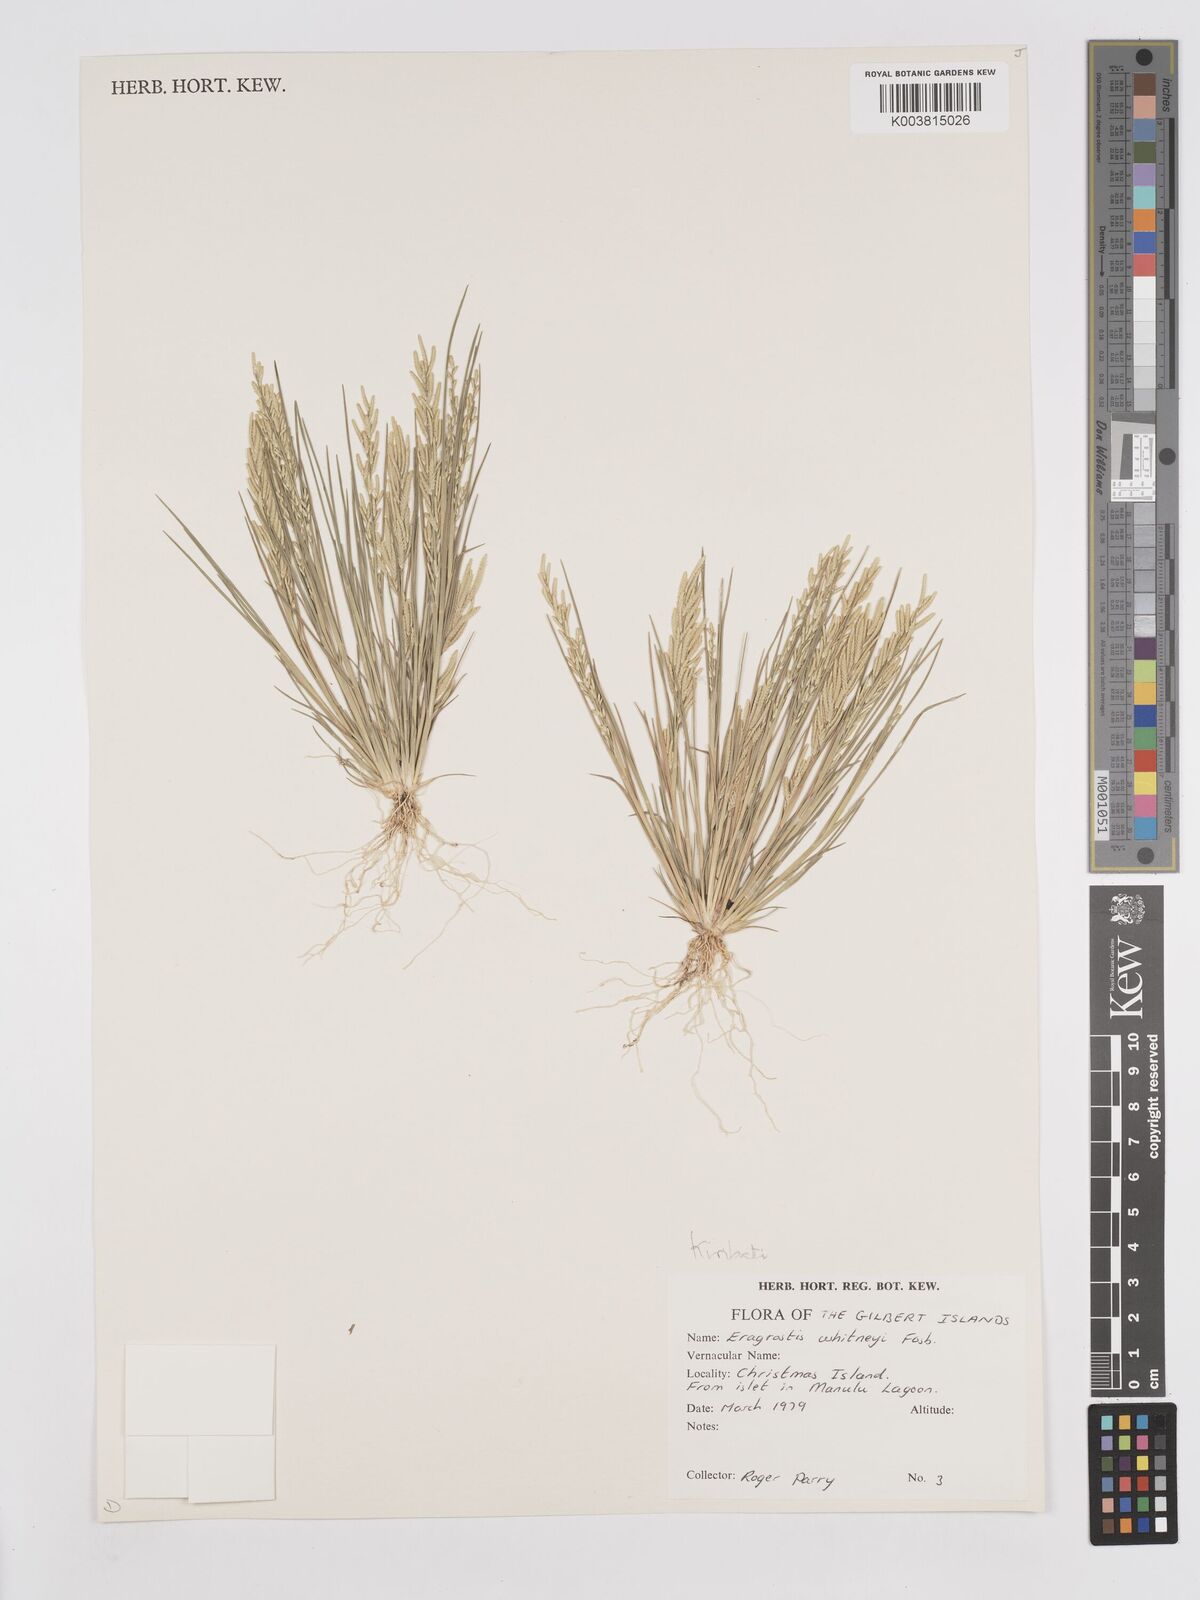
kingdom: Plantae
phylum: Tracheophyta
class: Liliopsida
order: Poales
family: Poaceae
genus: Eragrostis
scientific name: Eragrostis paupera
